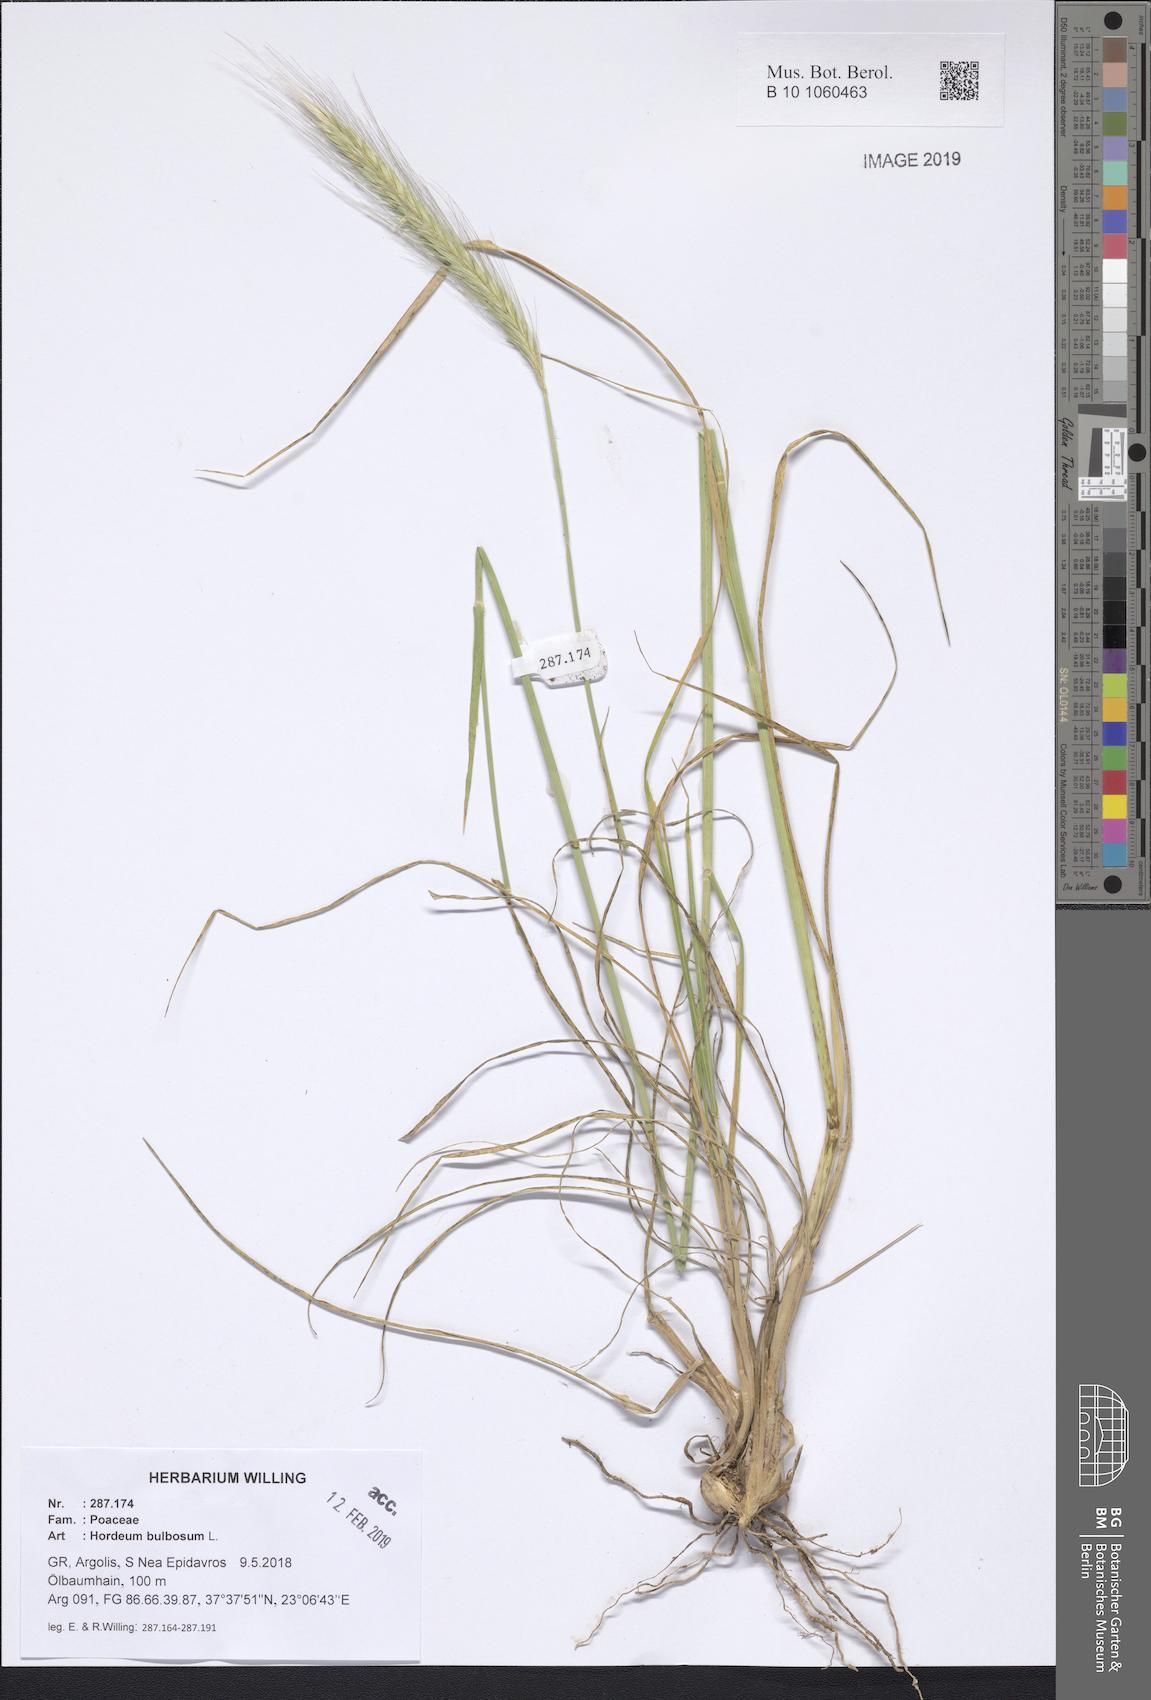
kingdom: Plantae
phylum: Tracheophyta
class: Liliopsida
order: Poales
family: Poaceae
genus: Hordeum
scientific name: Hordeum bulbosum
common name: Bulbous barley
